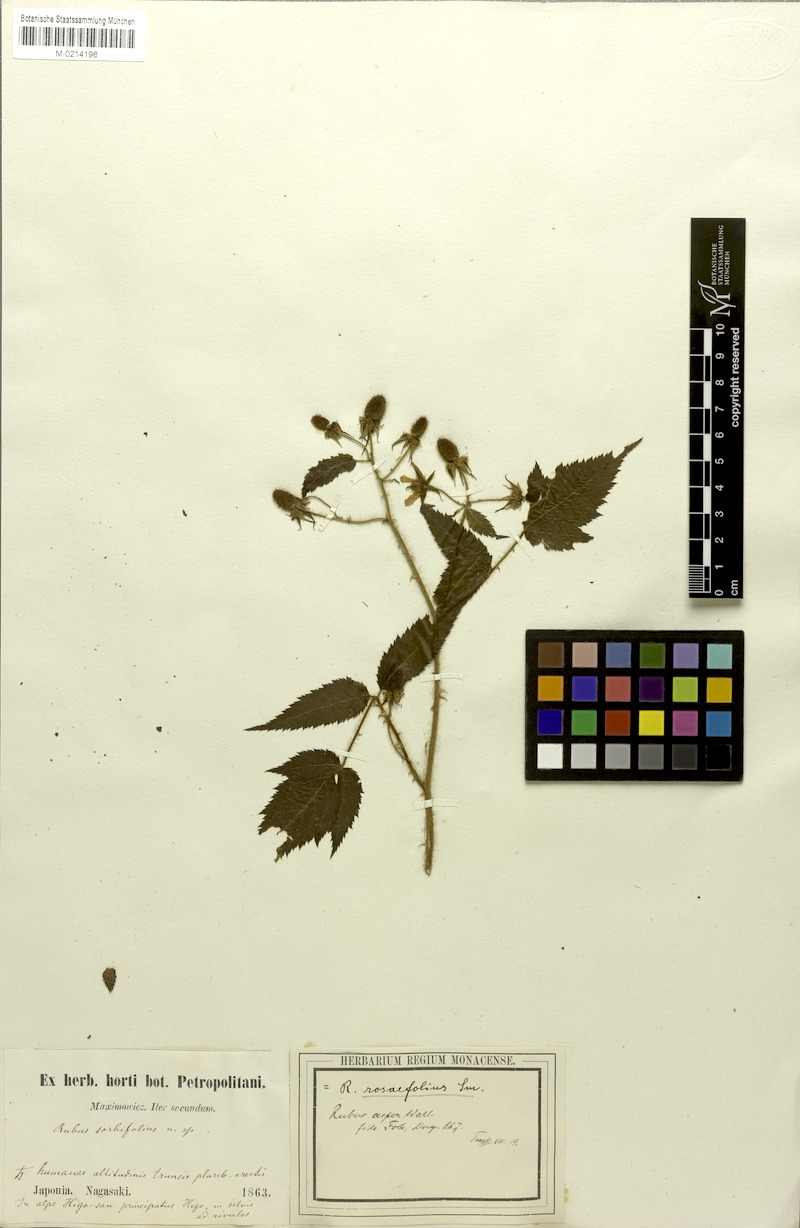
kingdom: Plantae
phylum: Tracheophyta
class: Magnoliopsida
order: Rosales
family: Rosaceae
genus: Rubus
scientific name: Rubus sumatranus
